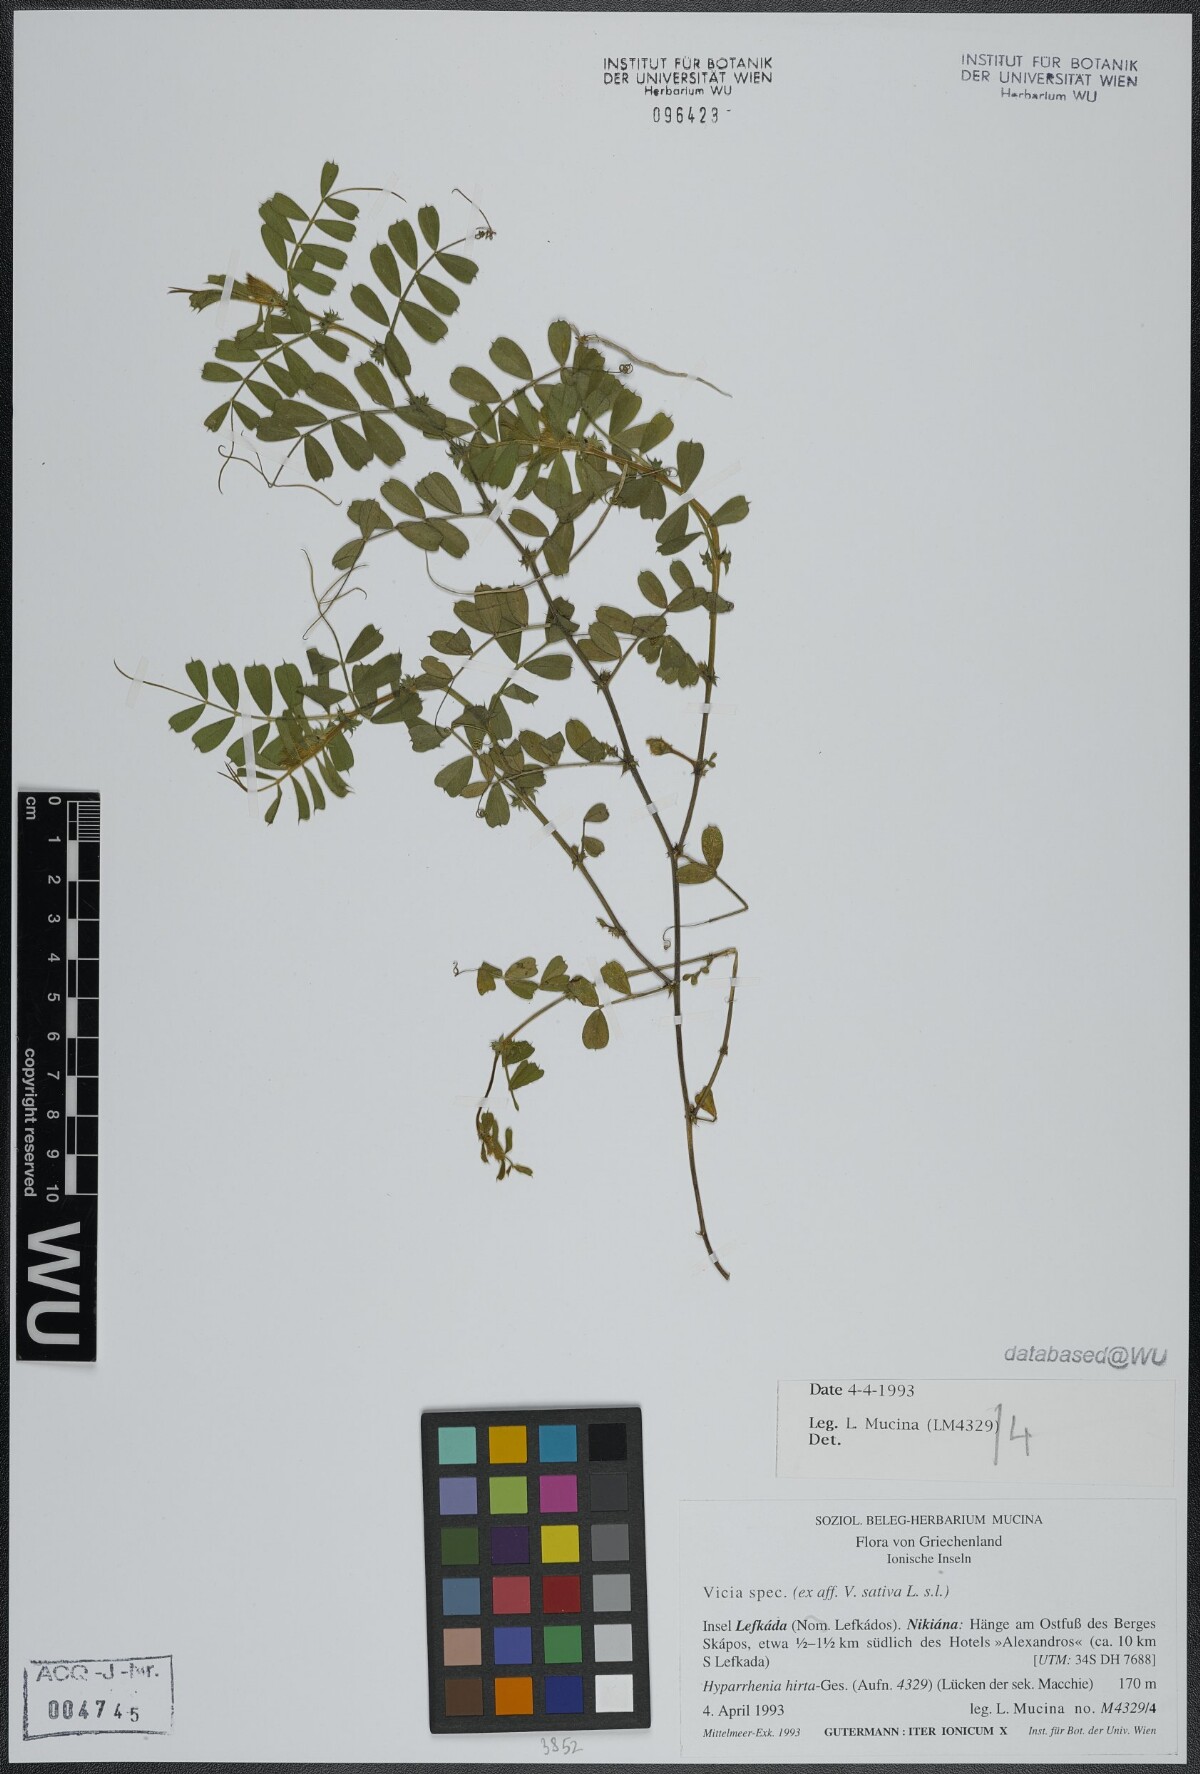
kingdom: Plantae
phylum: Tracheophyta
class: Magnoliopsida
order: Fabales
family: Fabaceae
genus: Vicia
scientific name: Vicia sativa
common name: Garden vetch
